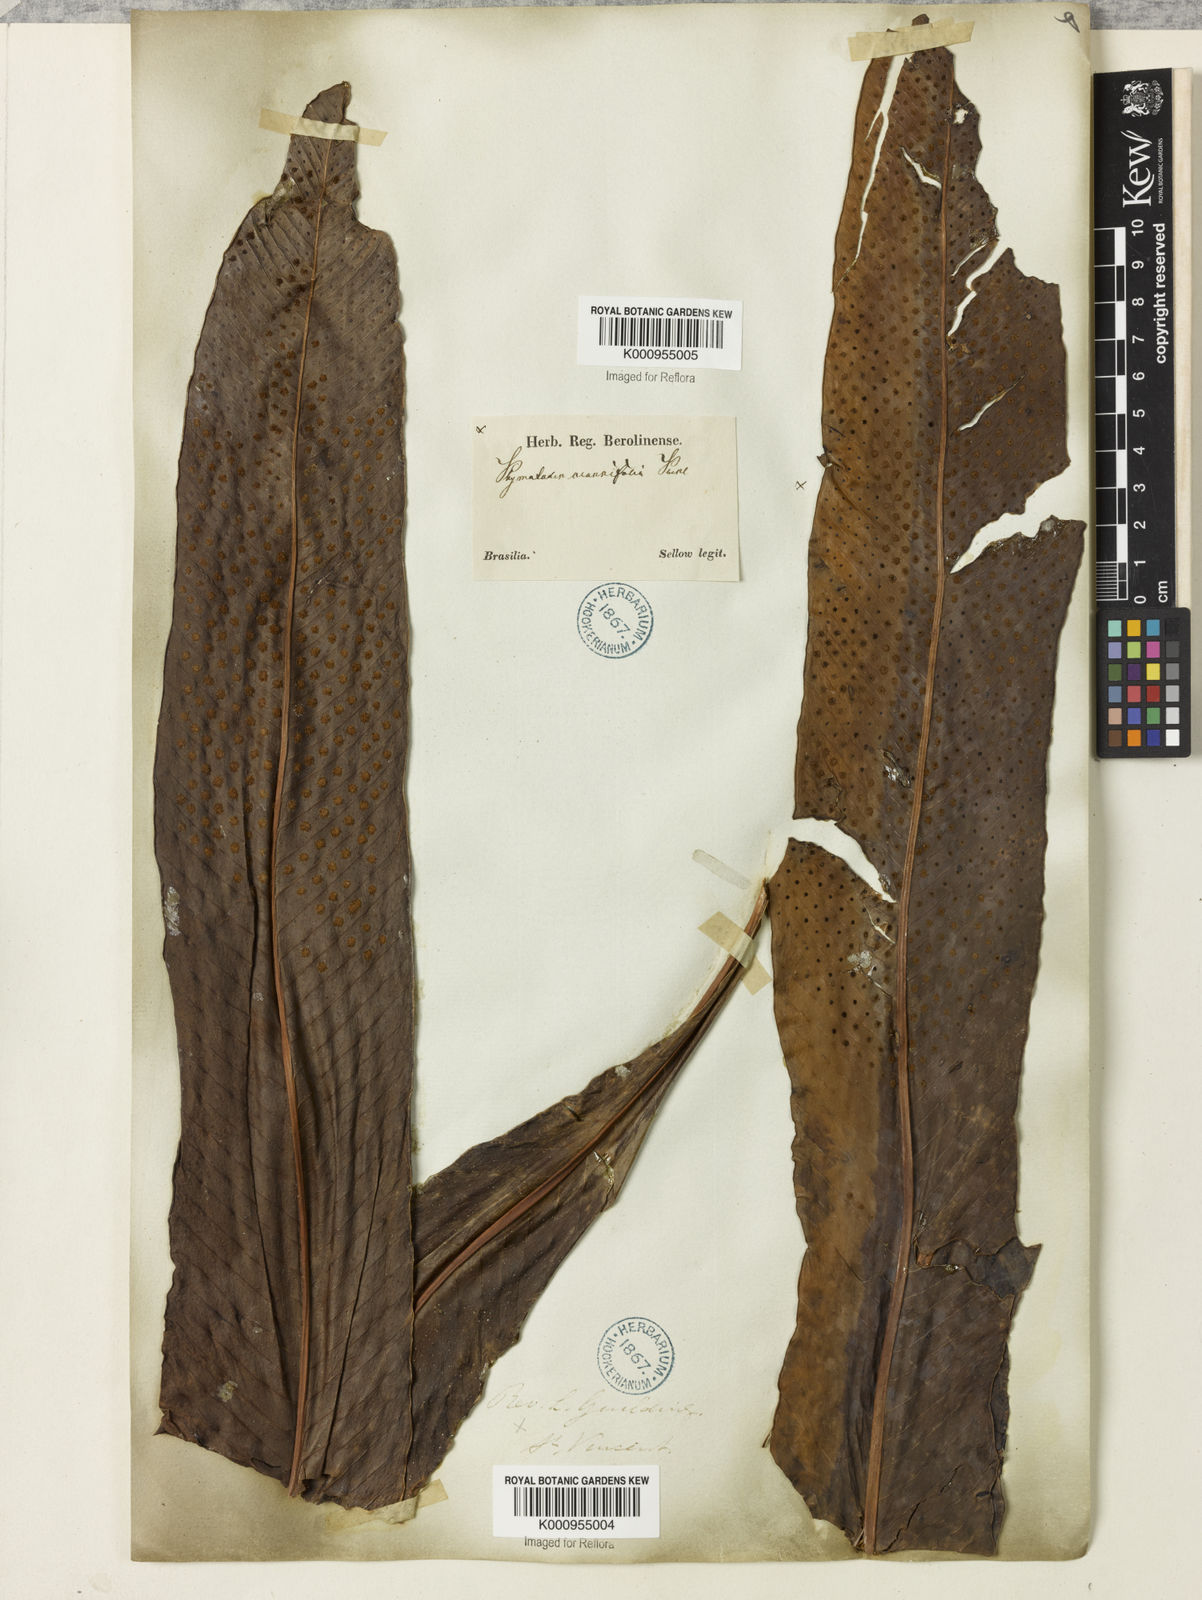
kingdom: Plantae
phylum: Tracheophyta
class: Polypodiopsida
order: Polypodiales
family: Polypodiaceae
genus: Niphidium
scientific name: Niphidium crassifolium
